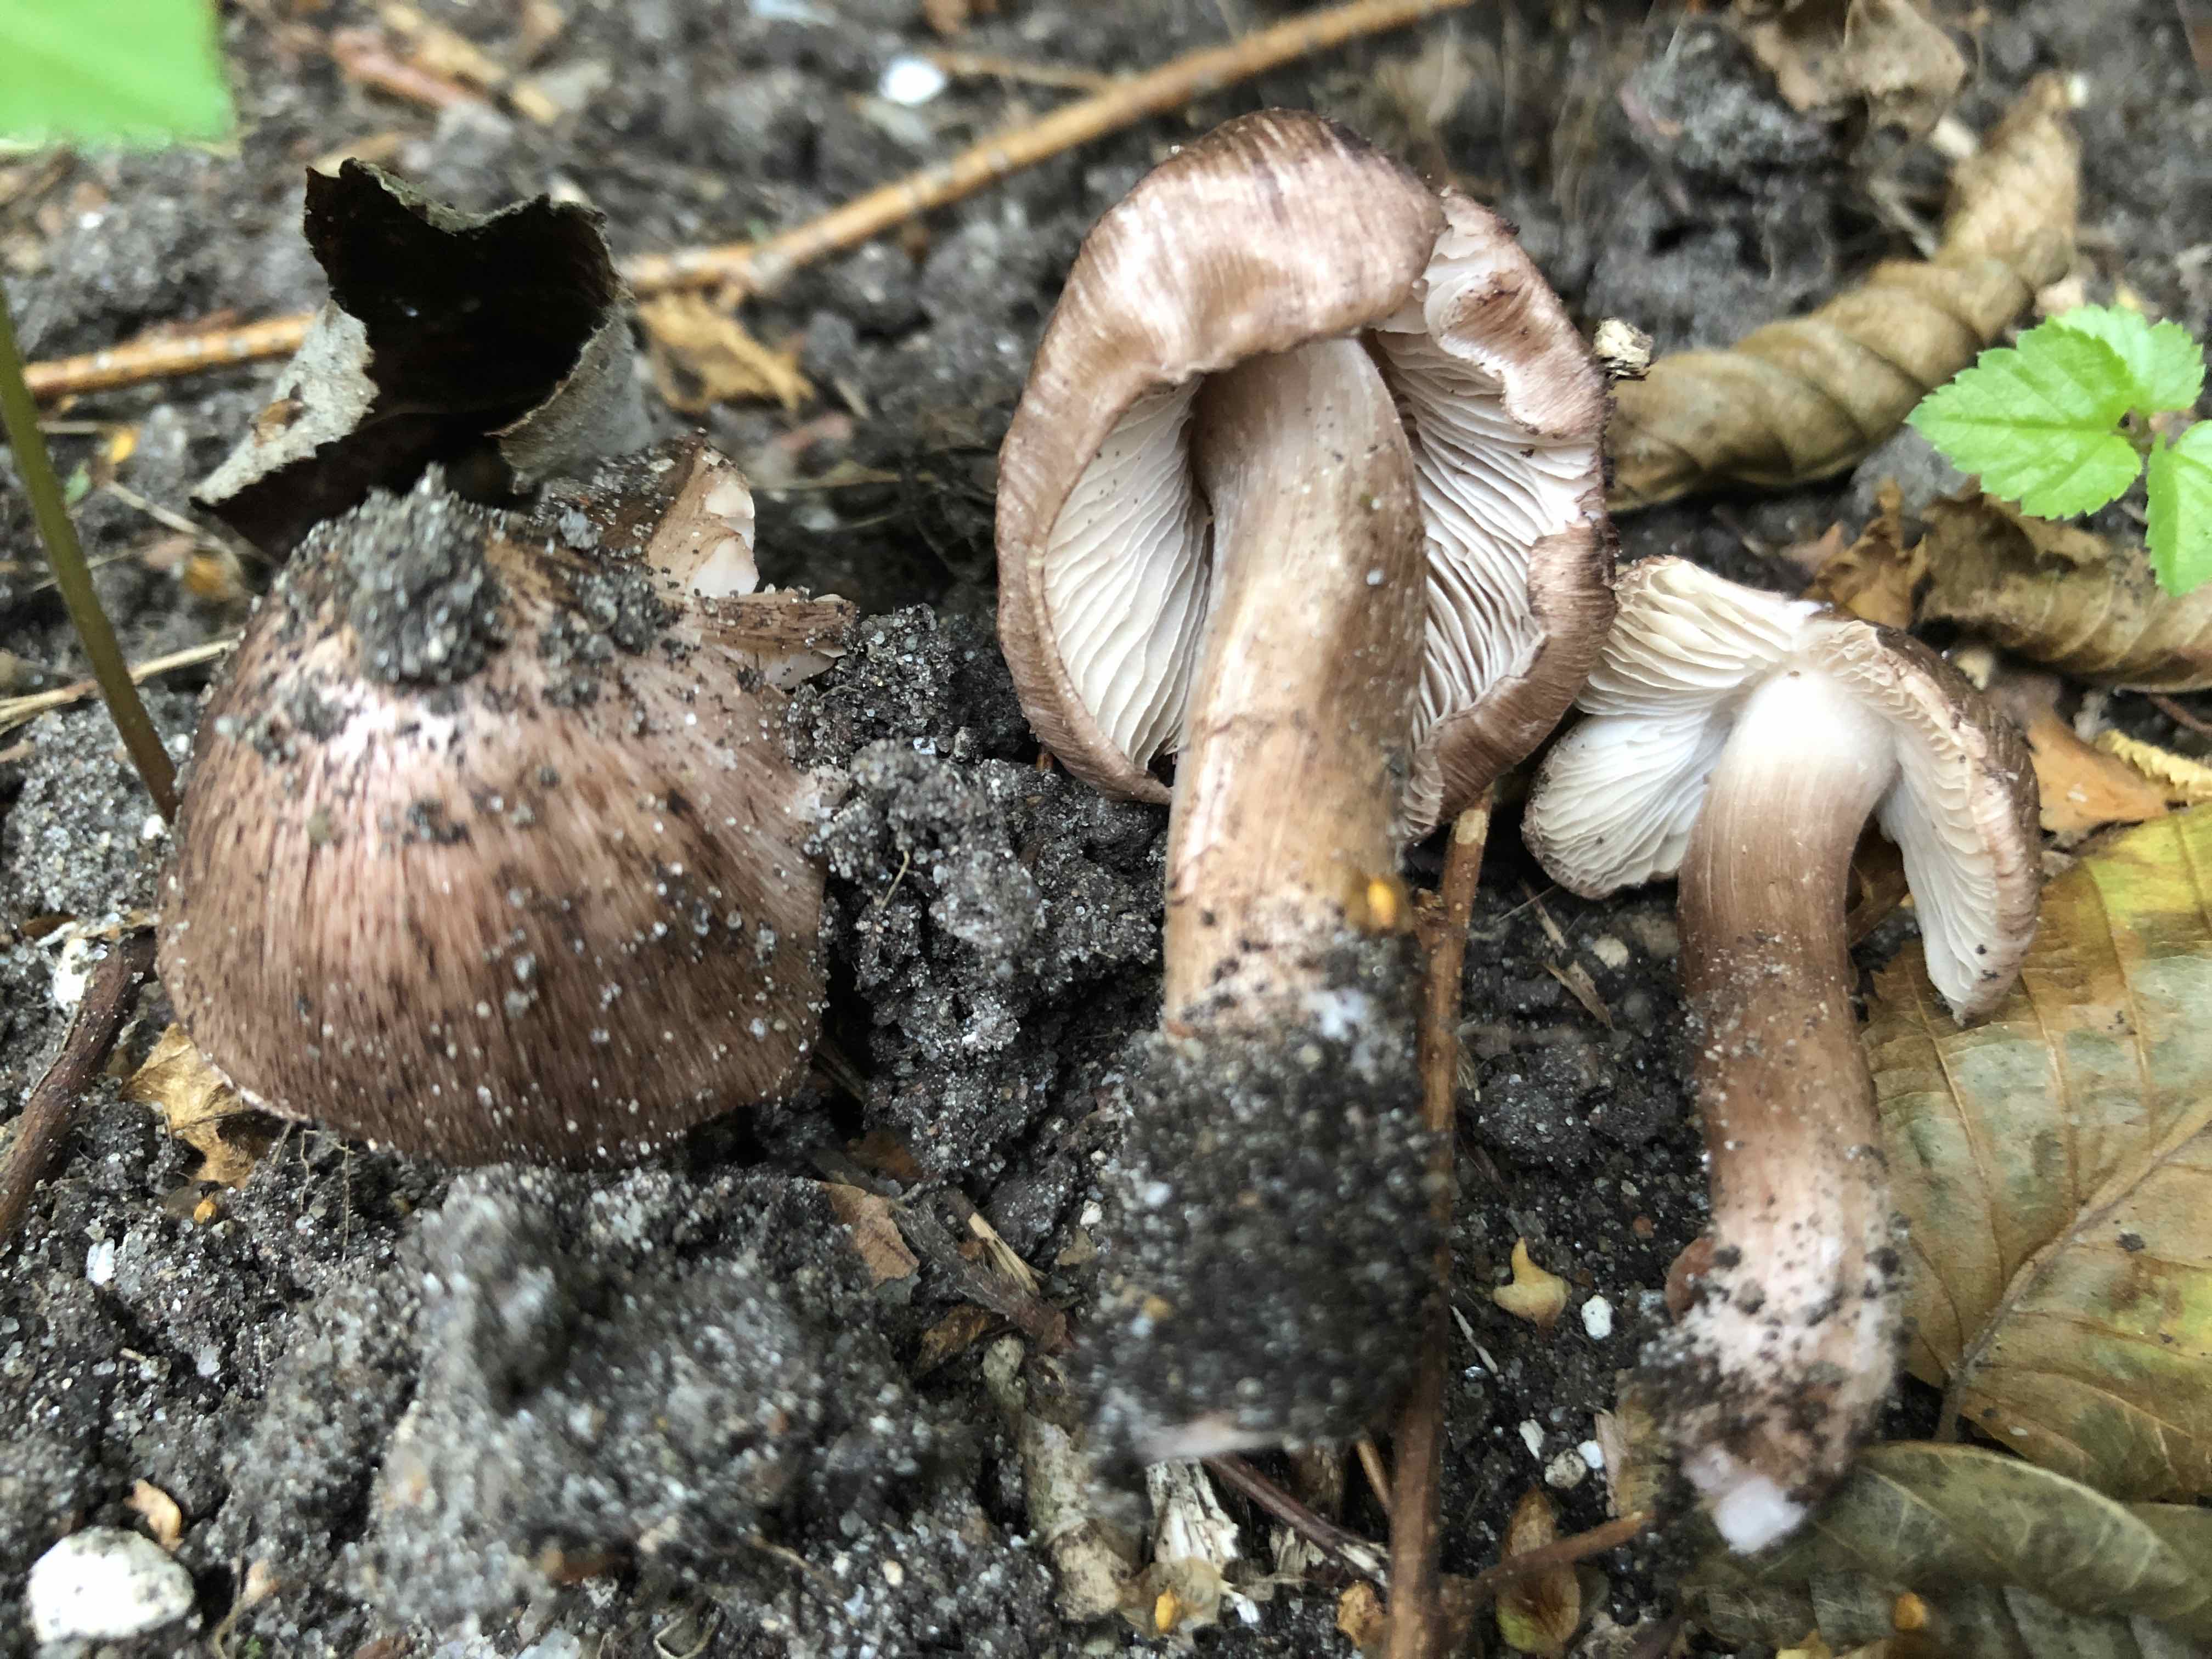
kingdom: Fungi
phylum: Basidiomycota
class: Agaricomycetes
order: Agaricales
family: Inocybaceae
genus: Inosperma
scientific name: Inosperma adaequatum
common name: vinrød trævlhat
